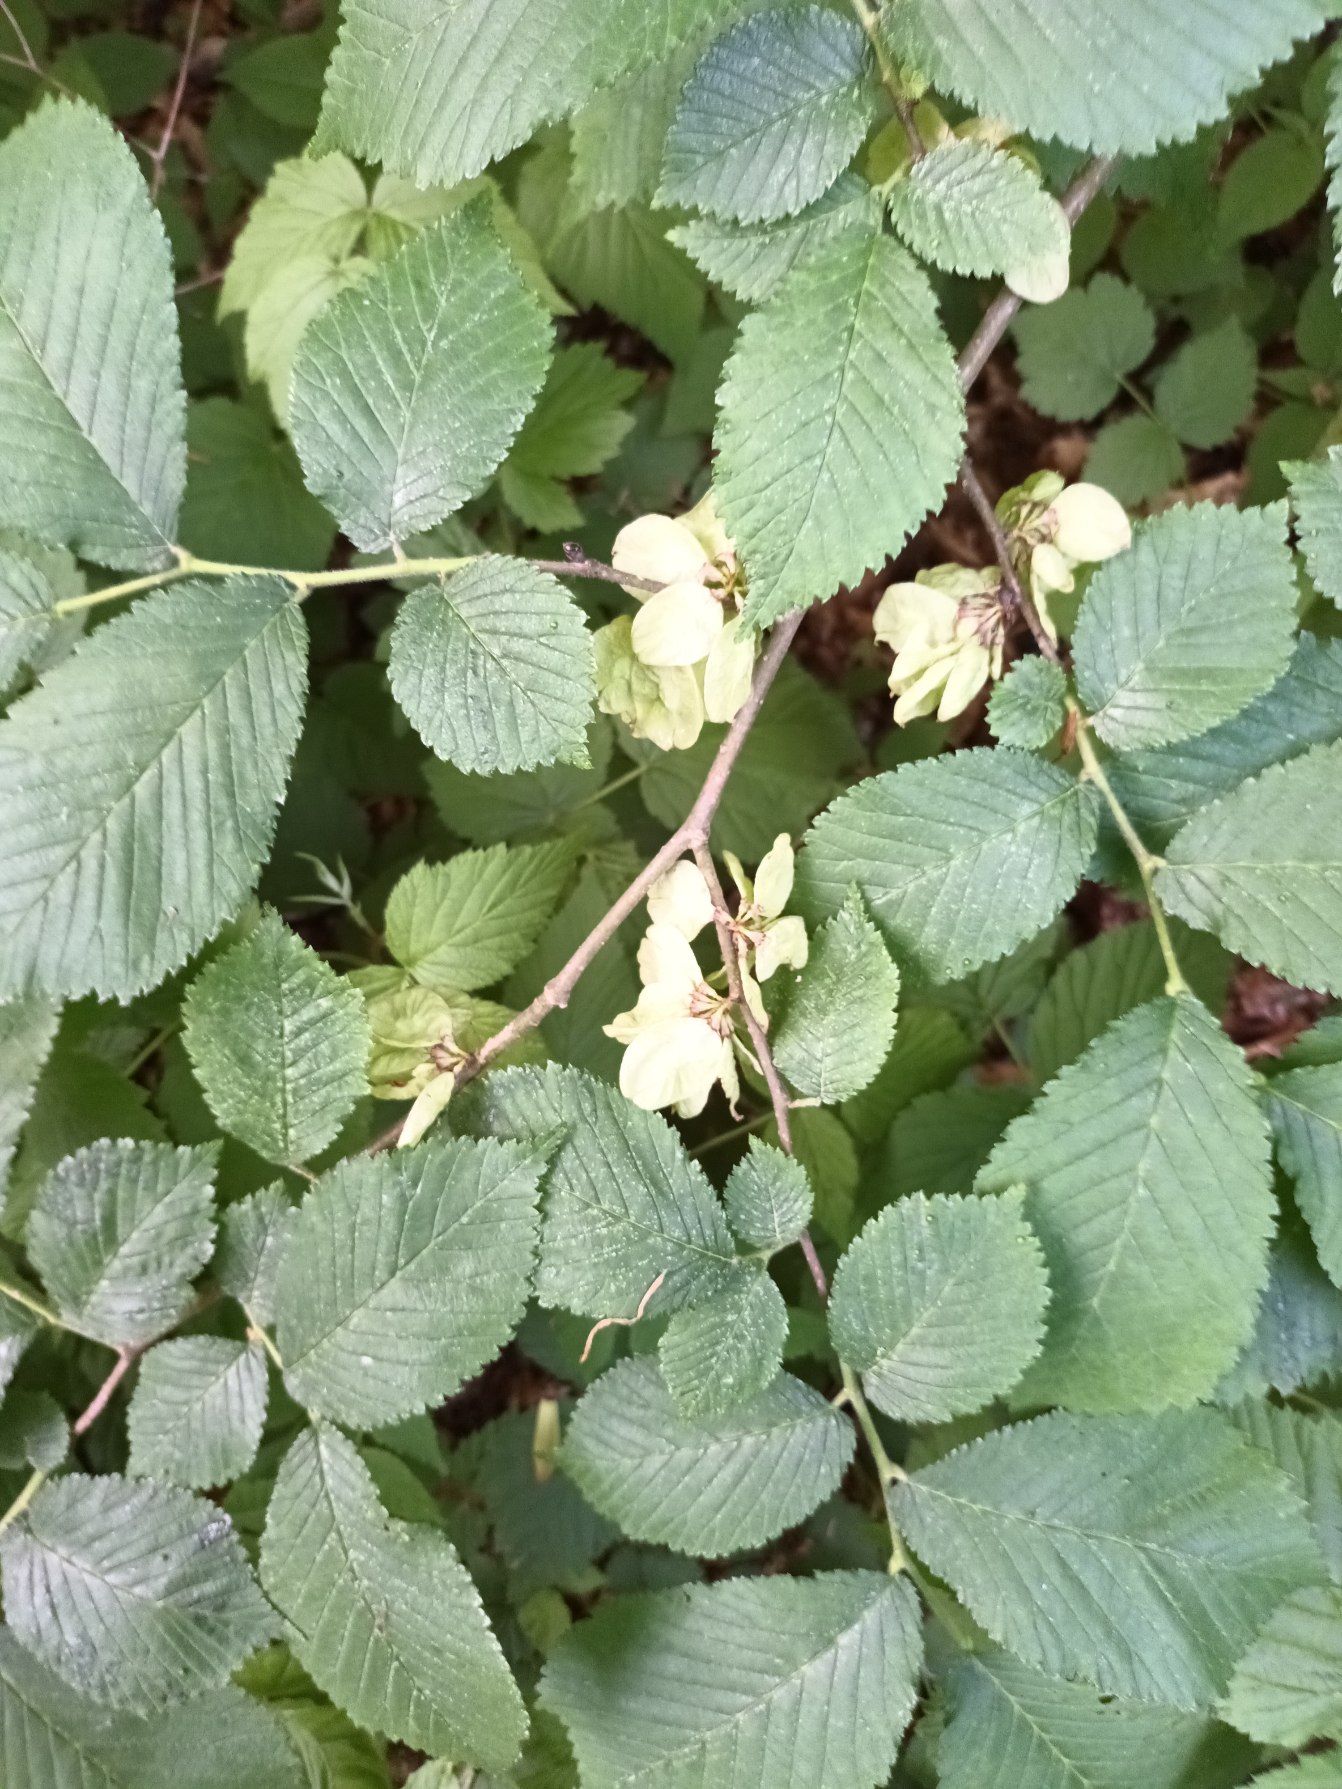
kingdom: Plantae
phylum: Tracheophyta
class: Magnoliopsida
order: Rosales
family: Ulmaceae
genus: Ulmus
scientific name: Ulmus glabra
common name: Skov-elm/storbladet elm
